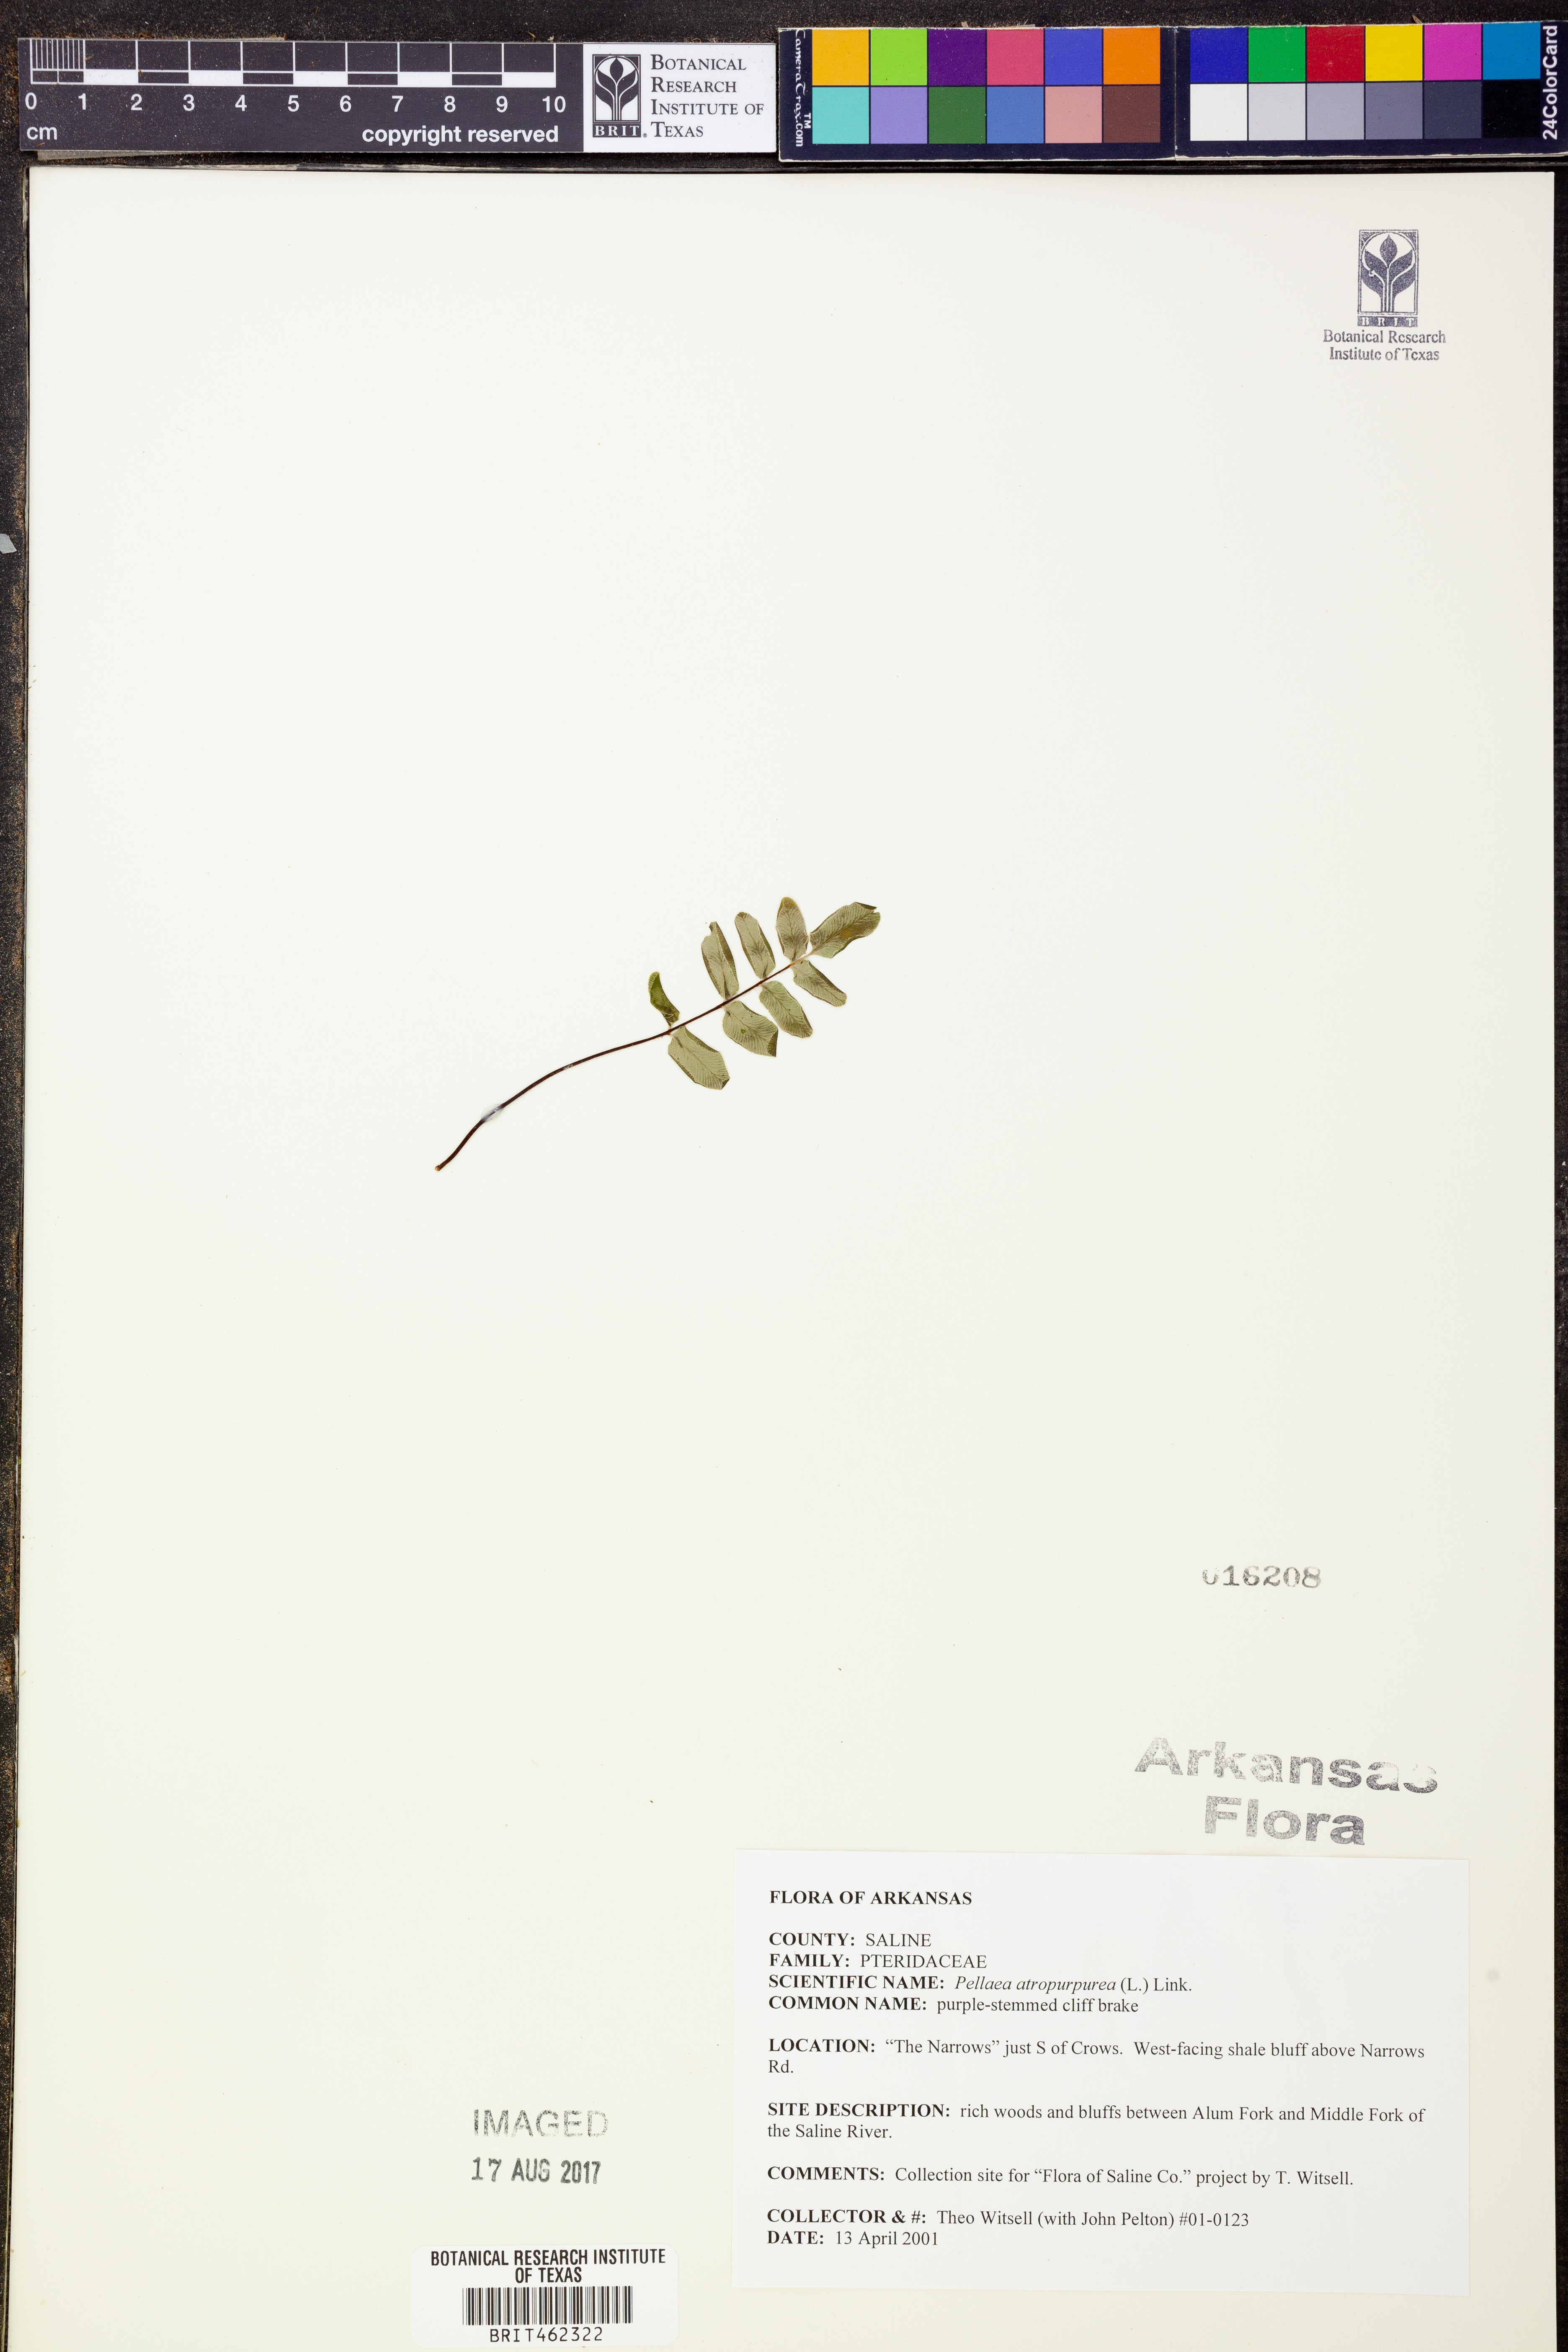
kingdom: Plantae
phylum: Tracheophyta
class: Polypodiopsida
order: Polypodiales
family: Pteridaceae
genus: Pellaea
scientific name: Pellaea atropurpurea
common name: Hairy cliffbrake
